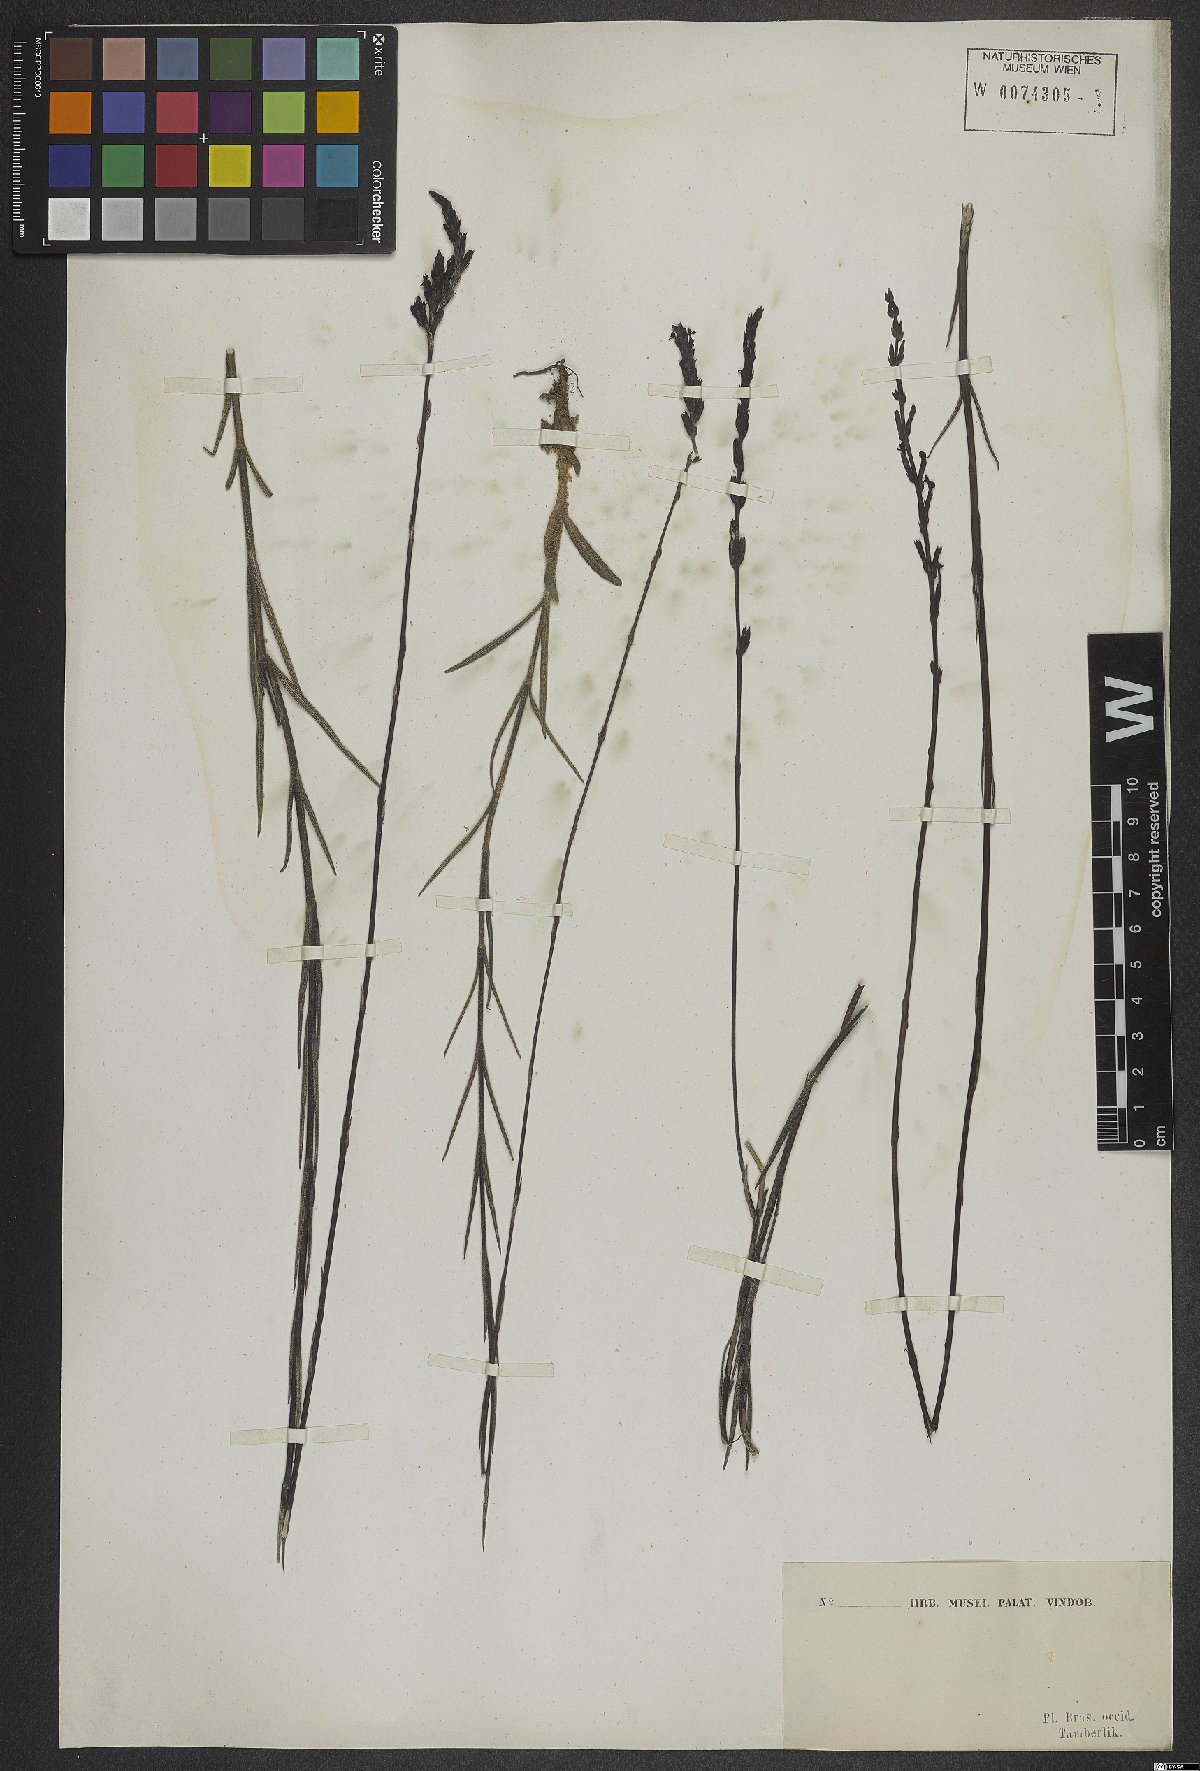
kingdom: Plantae
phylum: Tracheophyta
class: Magnoliopsida
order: Lamiales
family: Orobanchaceae
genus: Buchnera
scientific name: Buchnera
